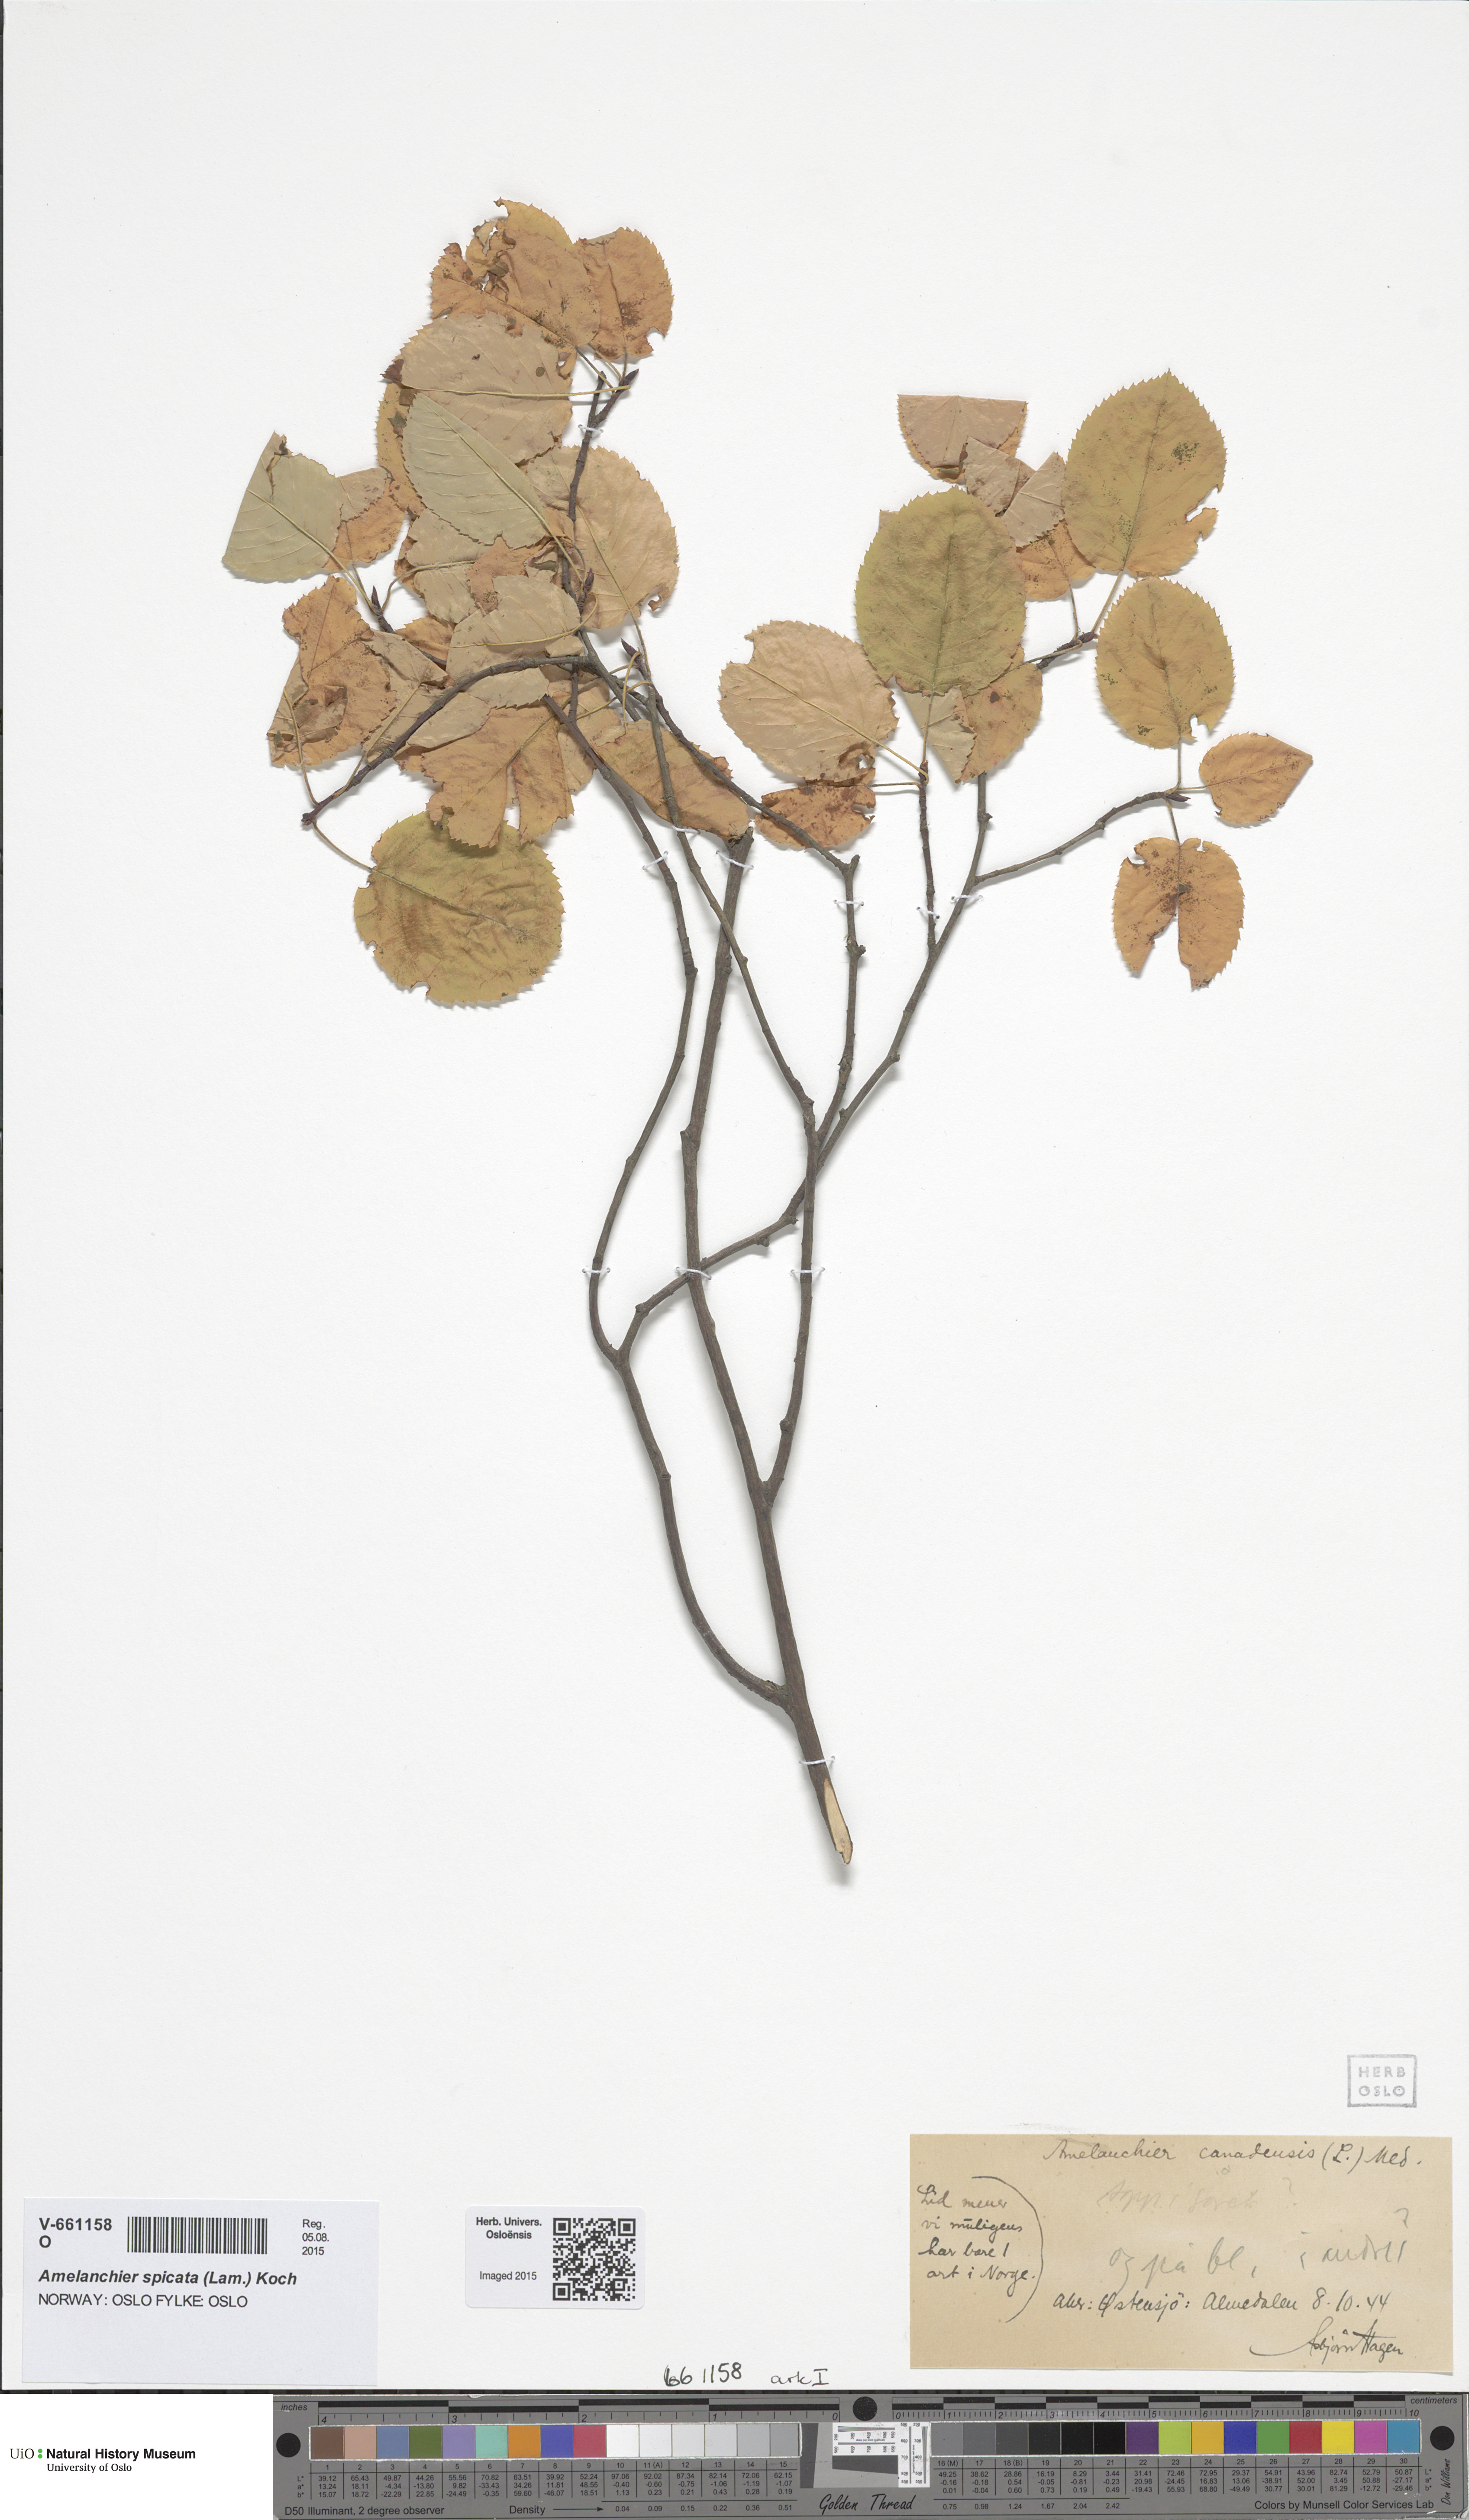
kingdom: Plantae
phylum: Tracheophyta
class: Magnoliopsida
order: Rosales
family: Rosaceae
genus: Amelanchier
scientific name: Amelanchier lamarckii
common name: Juneberry
